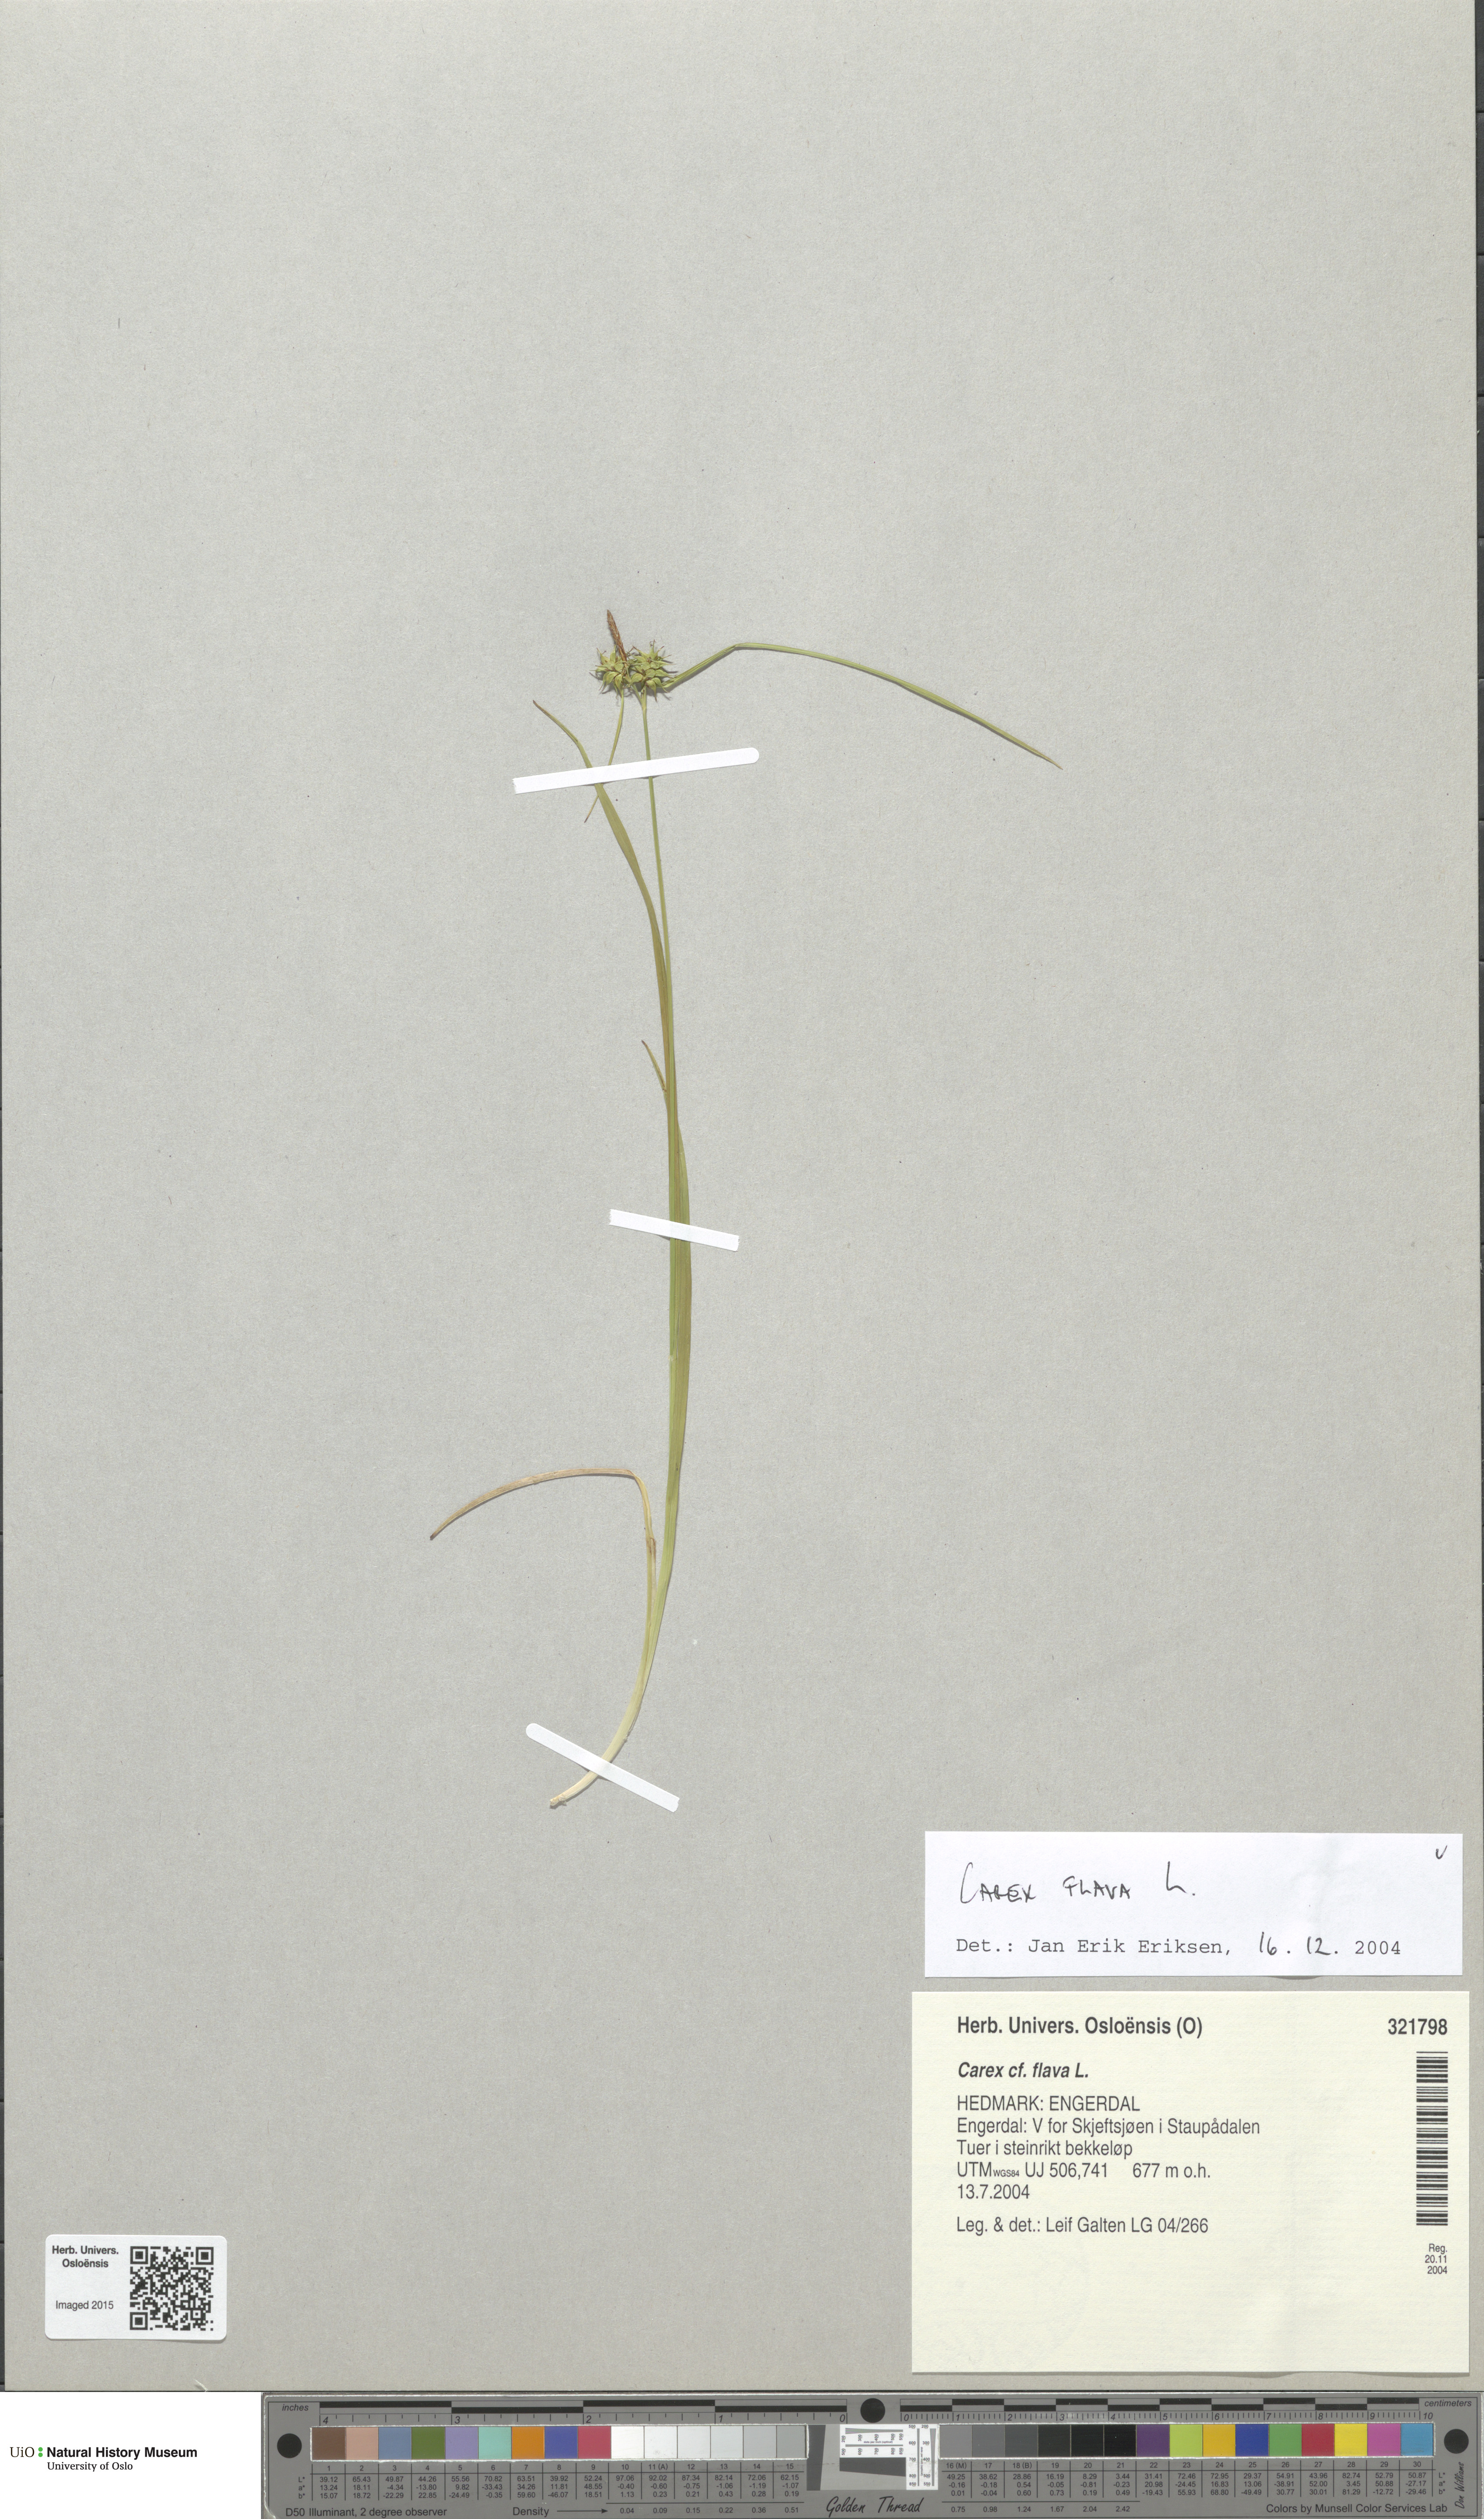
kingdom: Plantae
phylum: Tracheophyta
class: Liliopsida
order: Poales
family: Cyperaceae
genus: Carex
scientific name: Carex flava
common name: Large yellow-sedge
